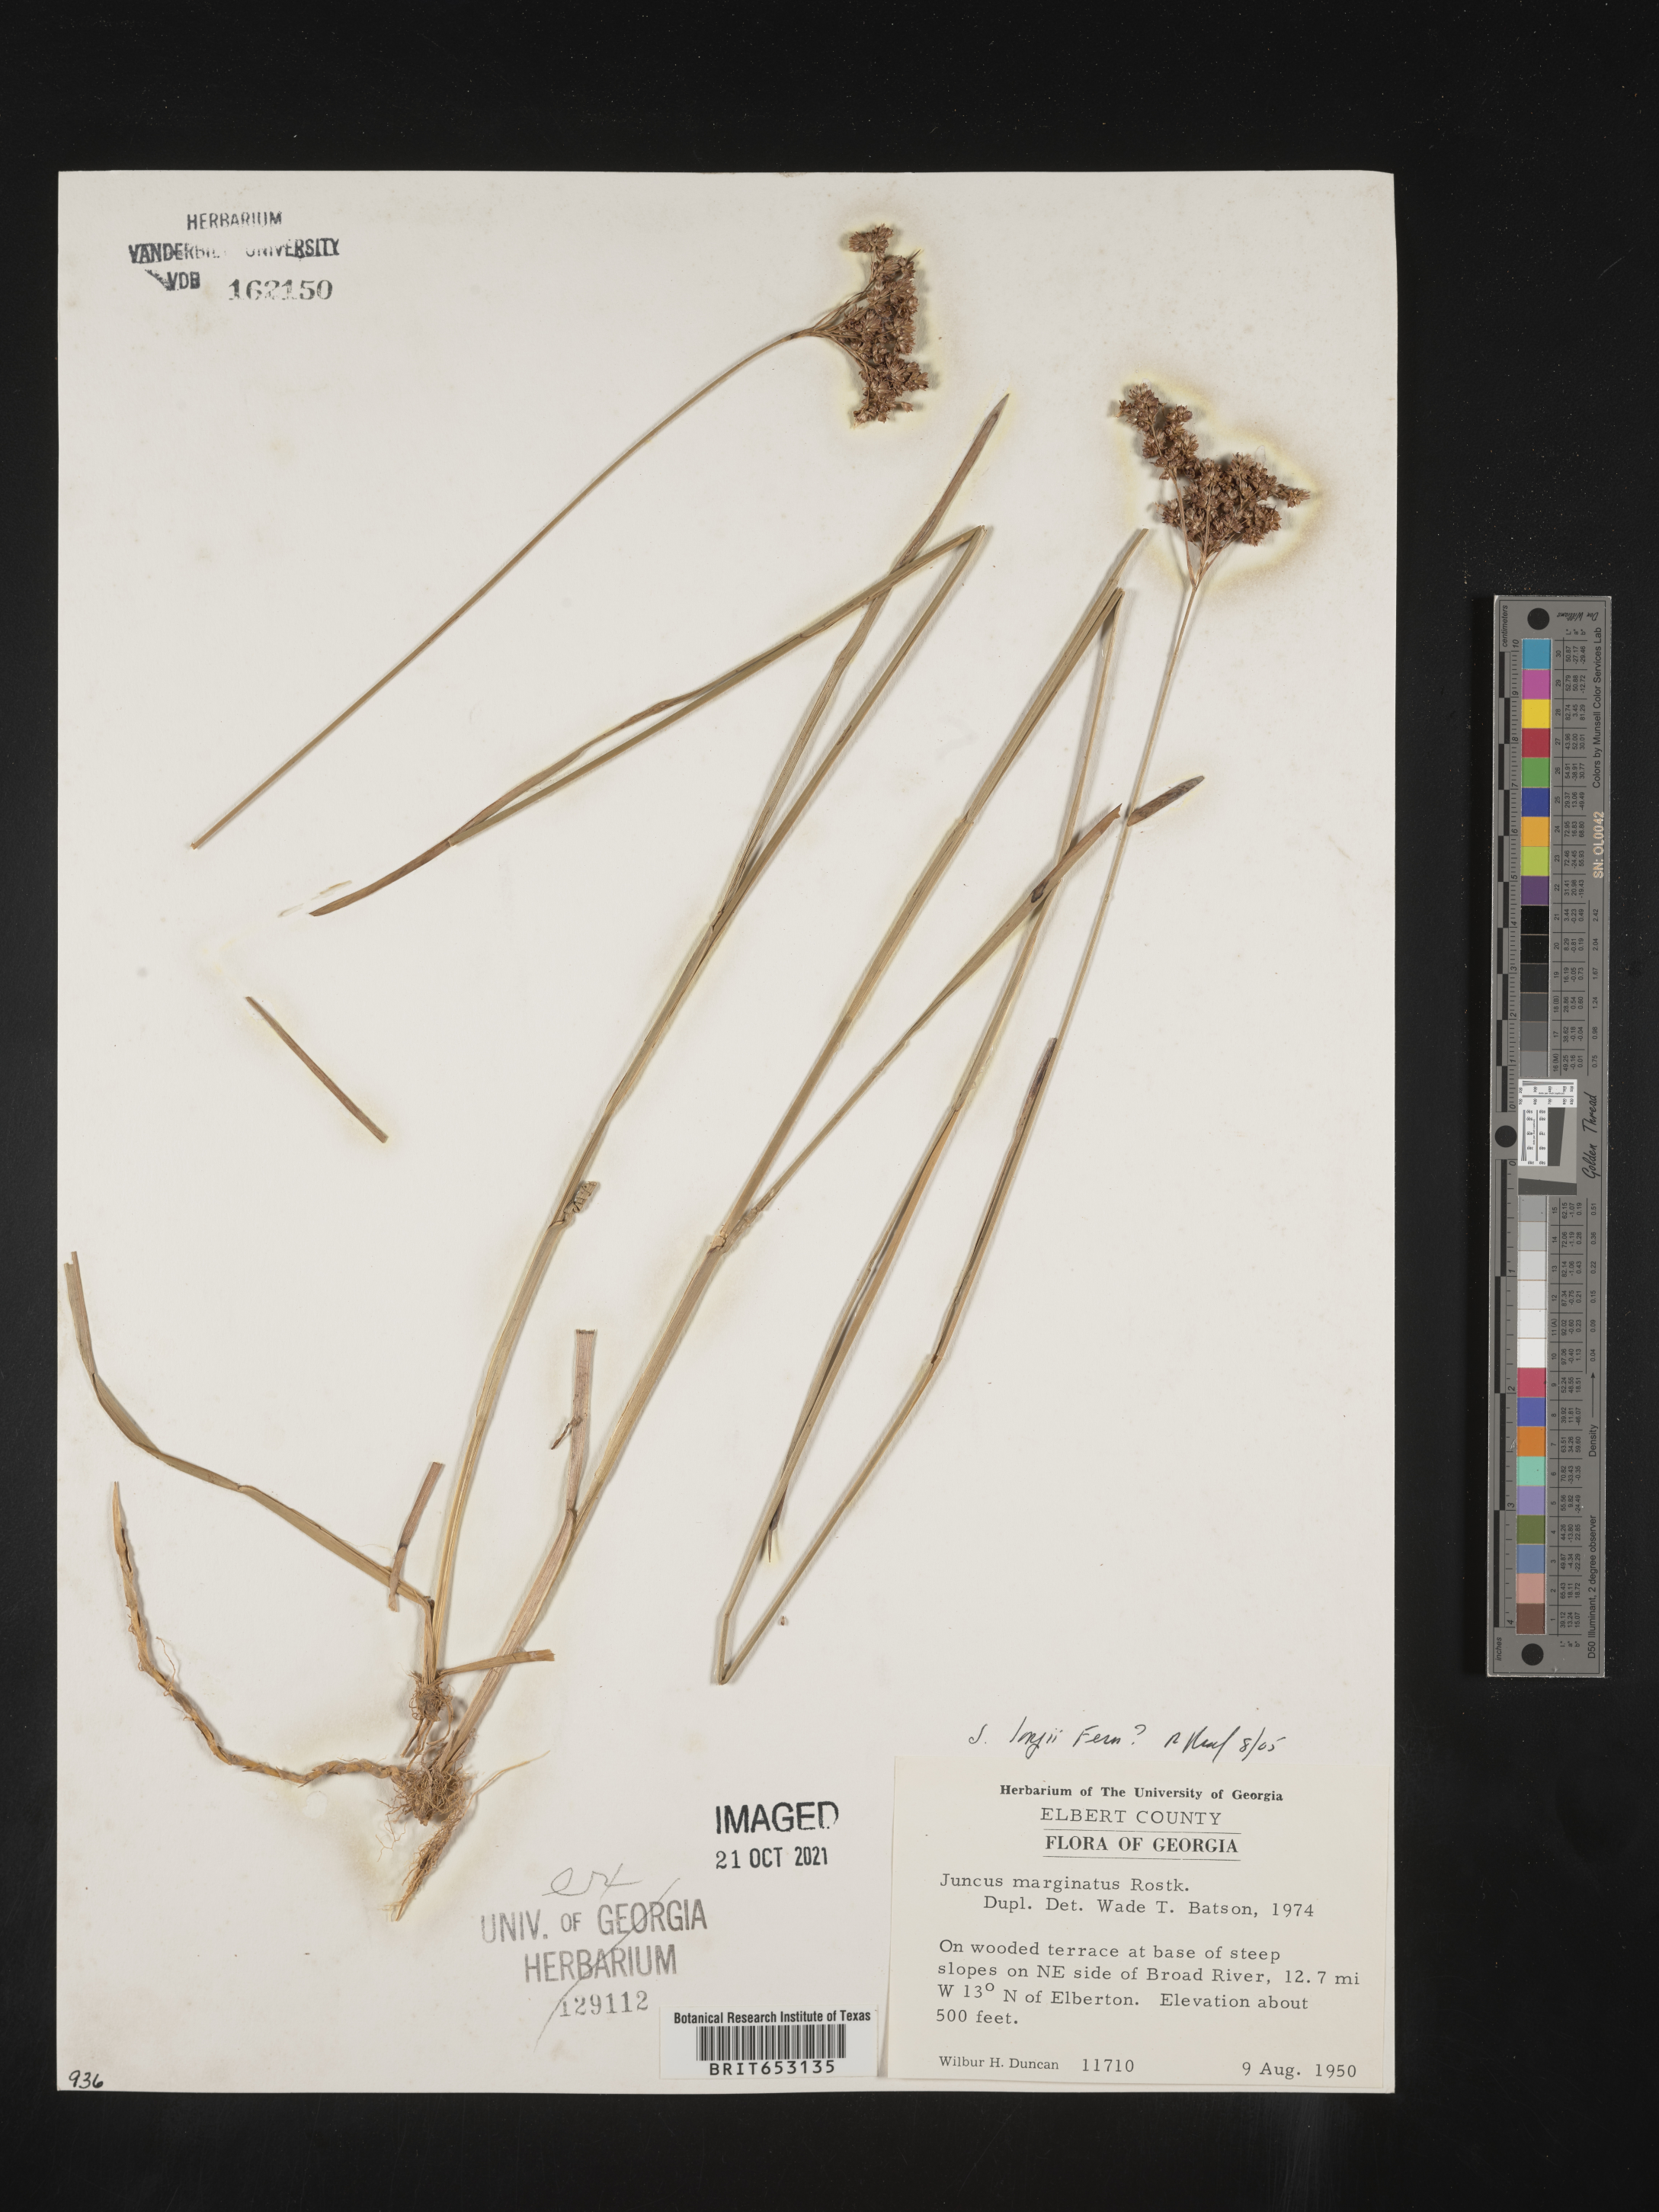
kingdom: Plantae
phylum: Tracheophyta
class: Liliopsida
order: Poales
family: Juncaceae
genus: Juncus
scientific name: Juncus longii
